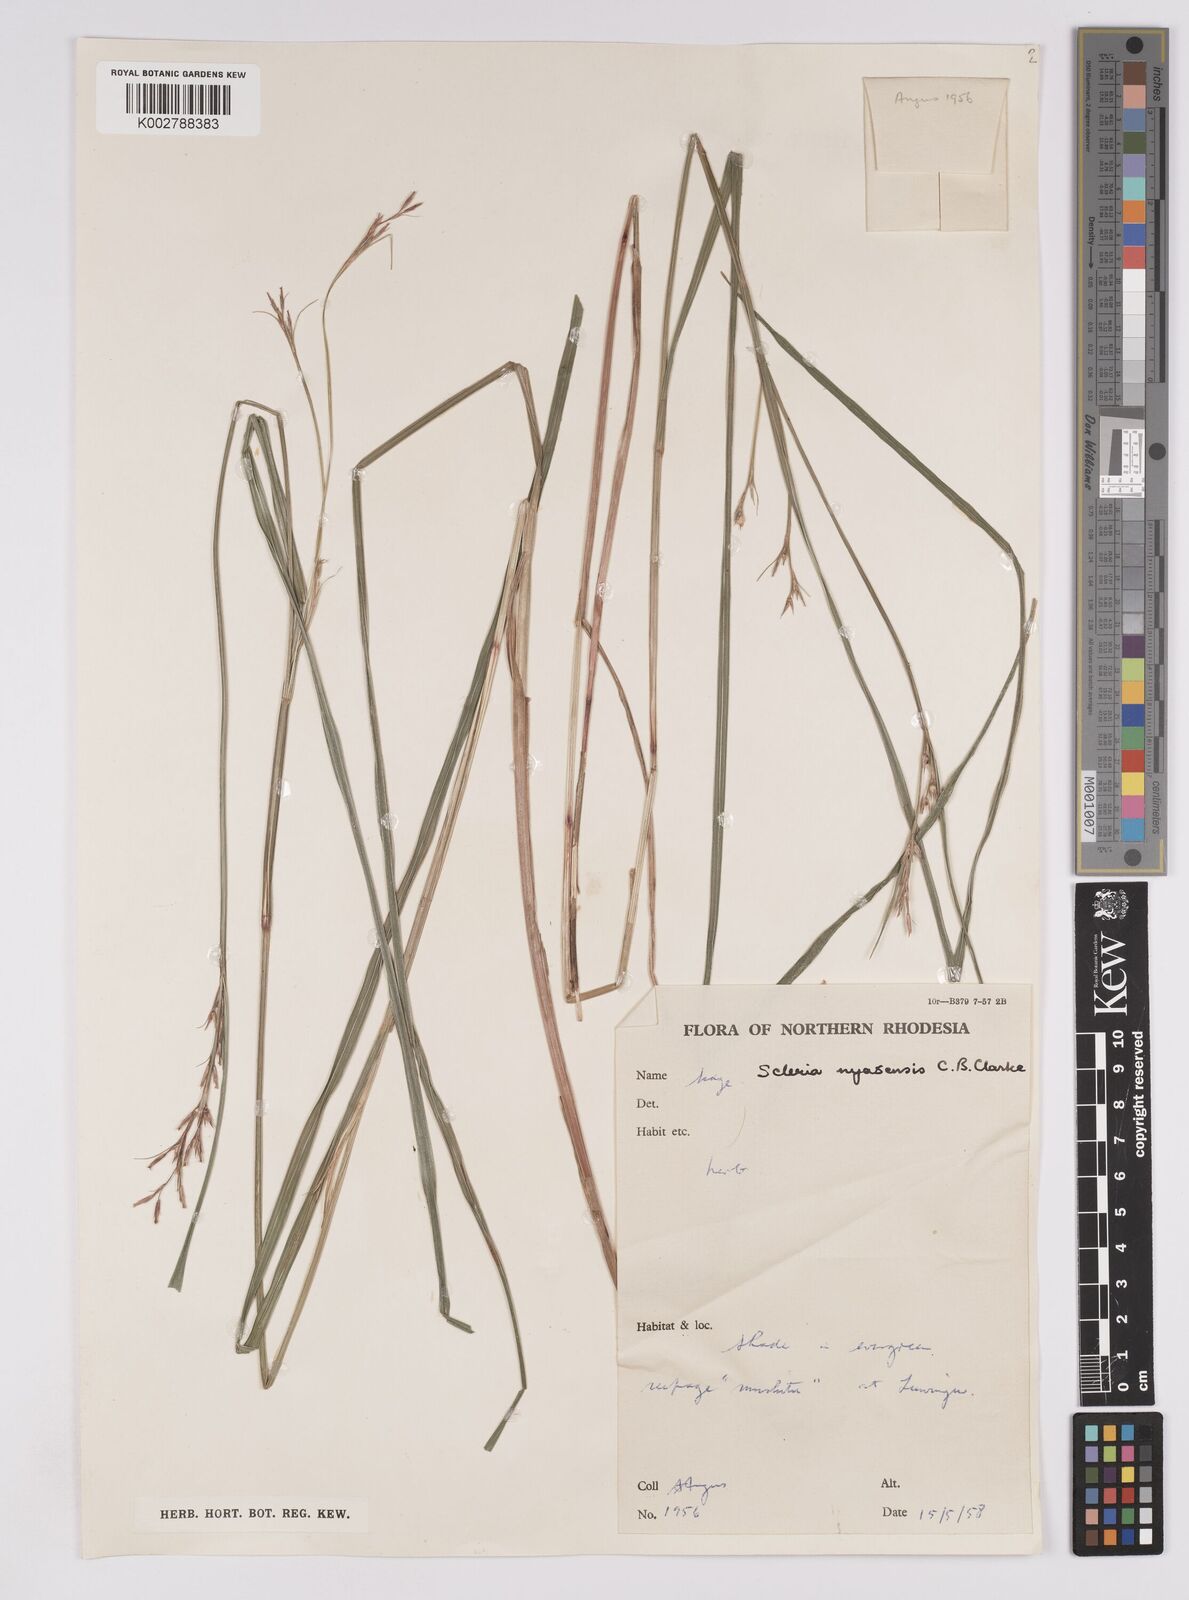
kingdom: Plantae
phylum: Tracheophyta
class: Liliopsida
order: Poales
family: Cyperaceae
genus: Scleria
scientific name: Scleria nyasensis
